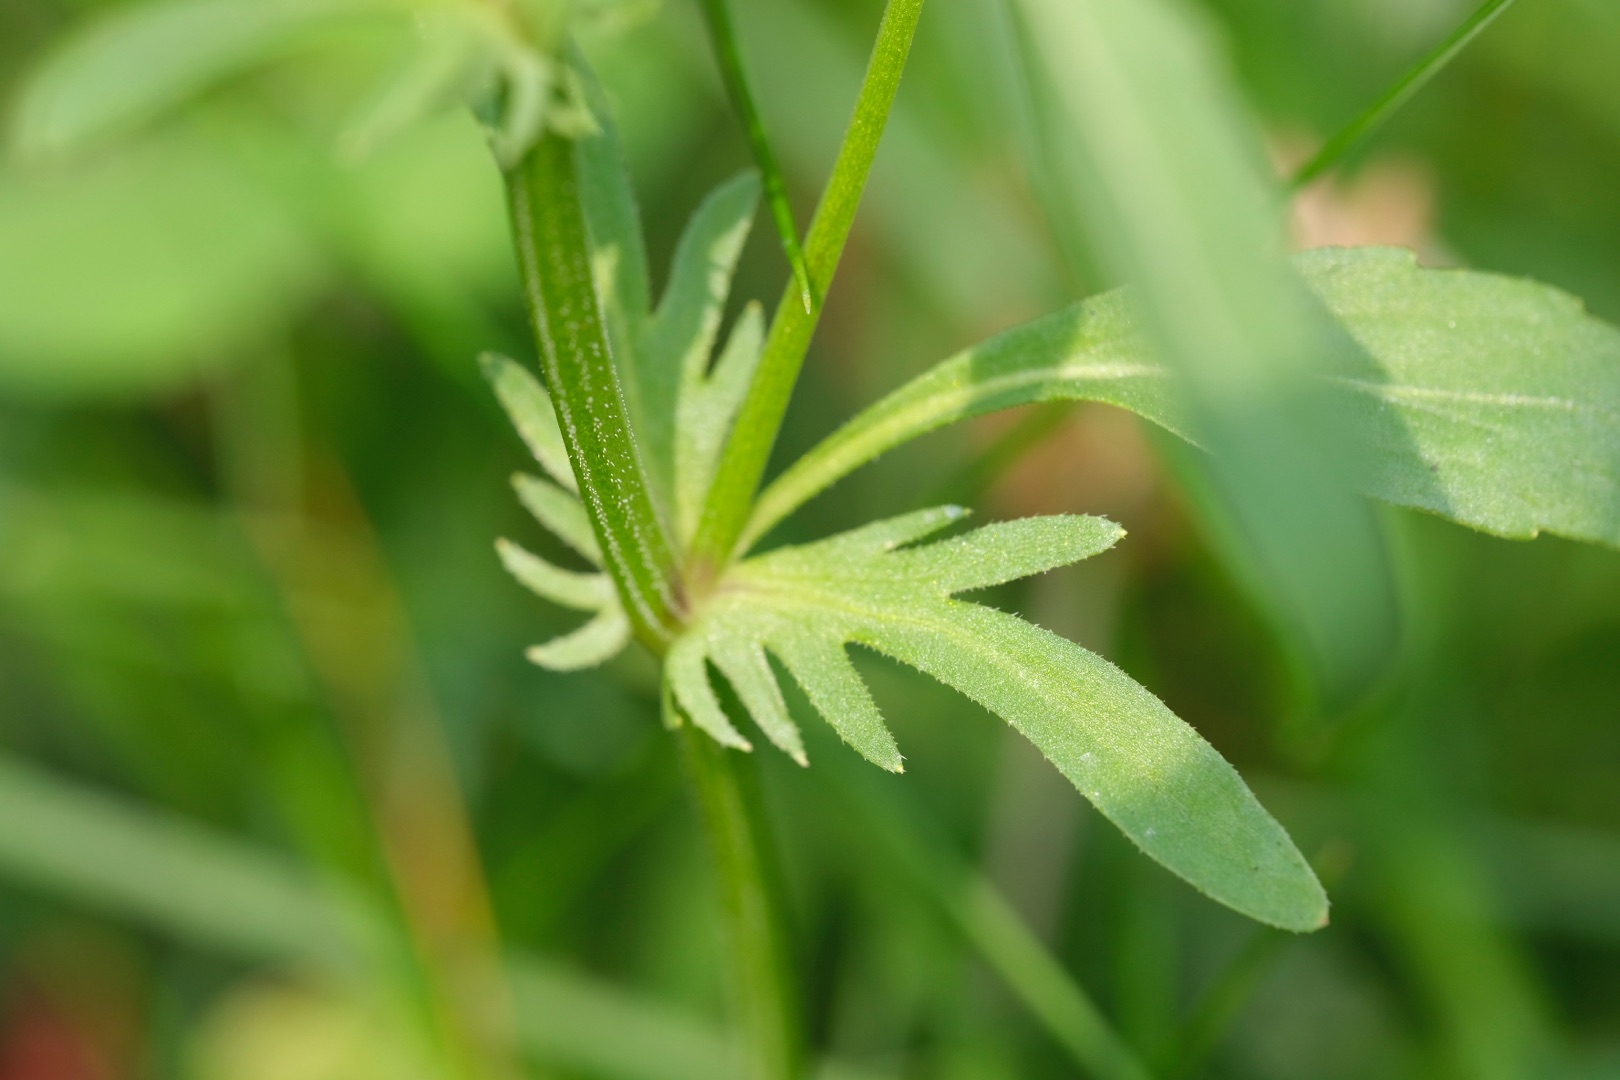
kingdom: Plantae
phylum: Tracheophyta
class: Magnoliopsida
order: Malpighiales
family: Violaceae
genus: Viola
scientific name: Viola tricolor
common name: Almindelig stedmoderblomst
